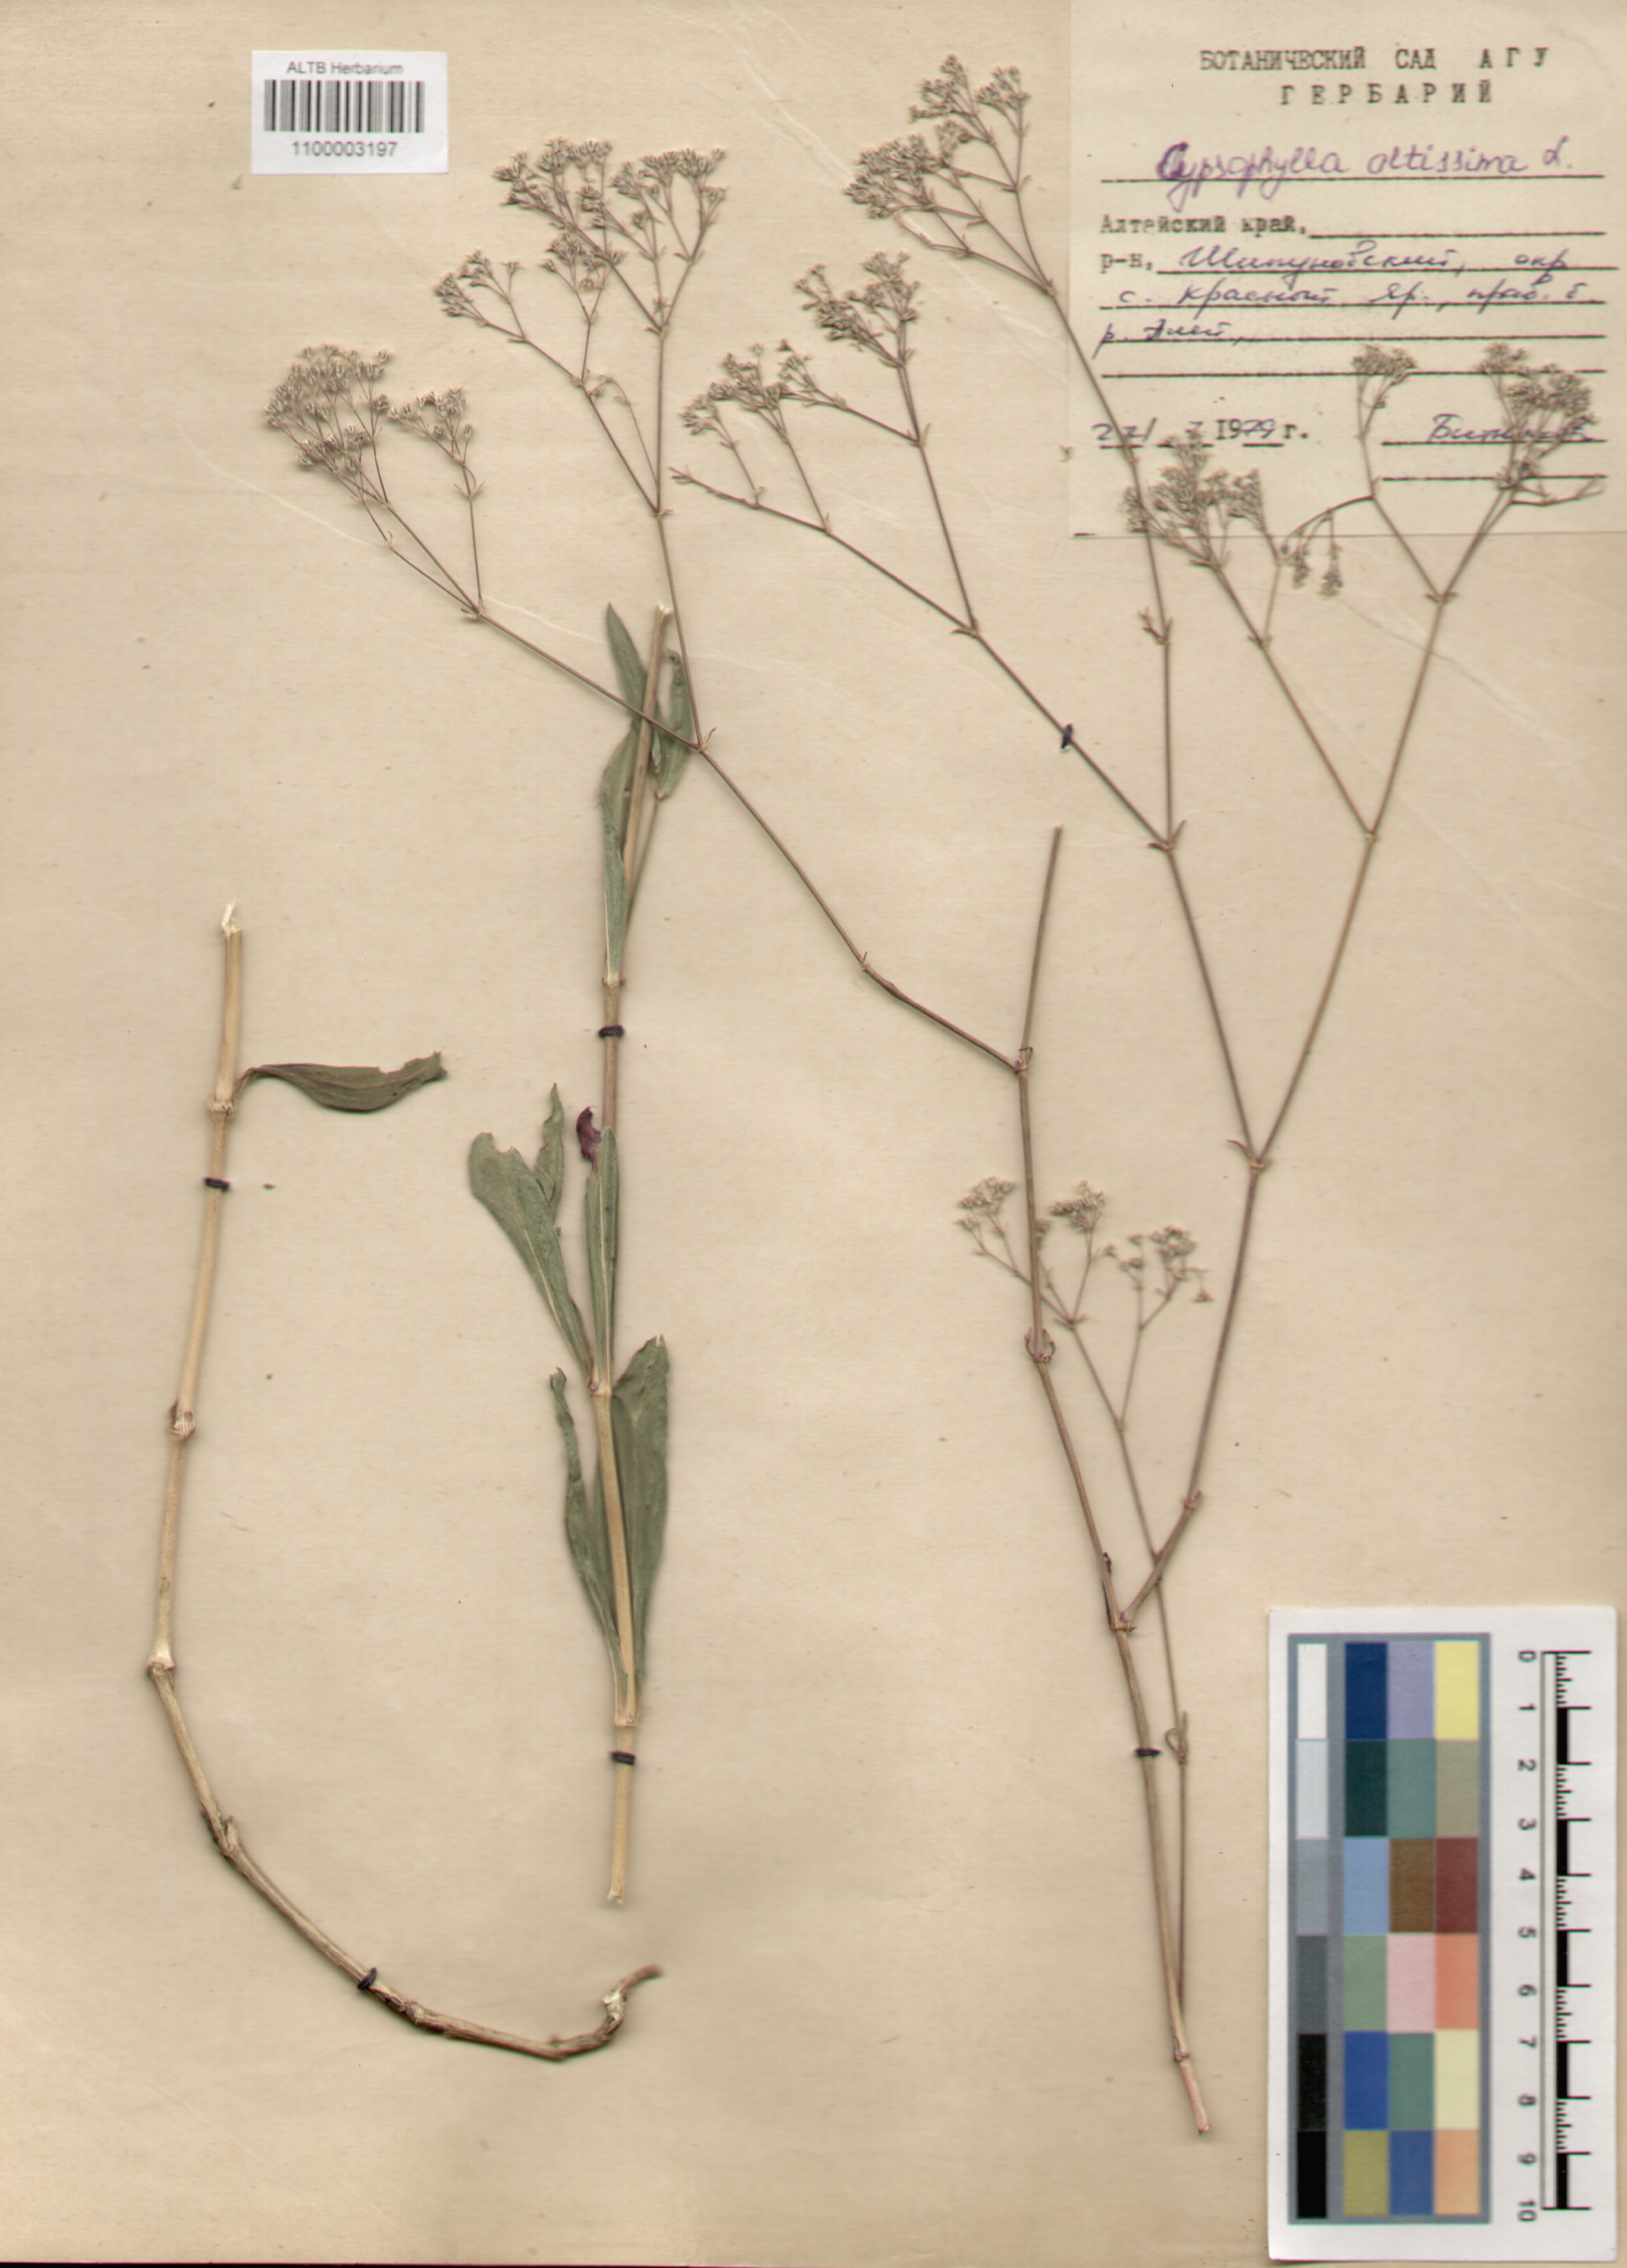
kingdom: Plantae
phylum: Tracheophyta
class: Magnoliopsida
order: Caryophyllales
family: Caryophyllaceae
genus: Gypsophila
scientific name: Gypsophila altissima
